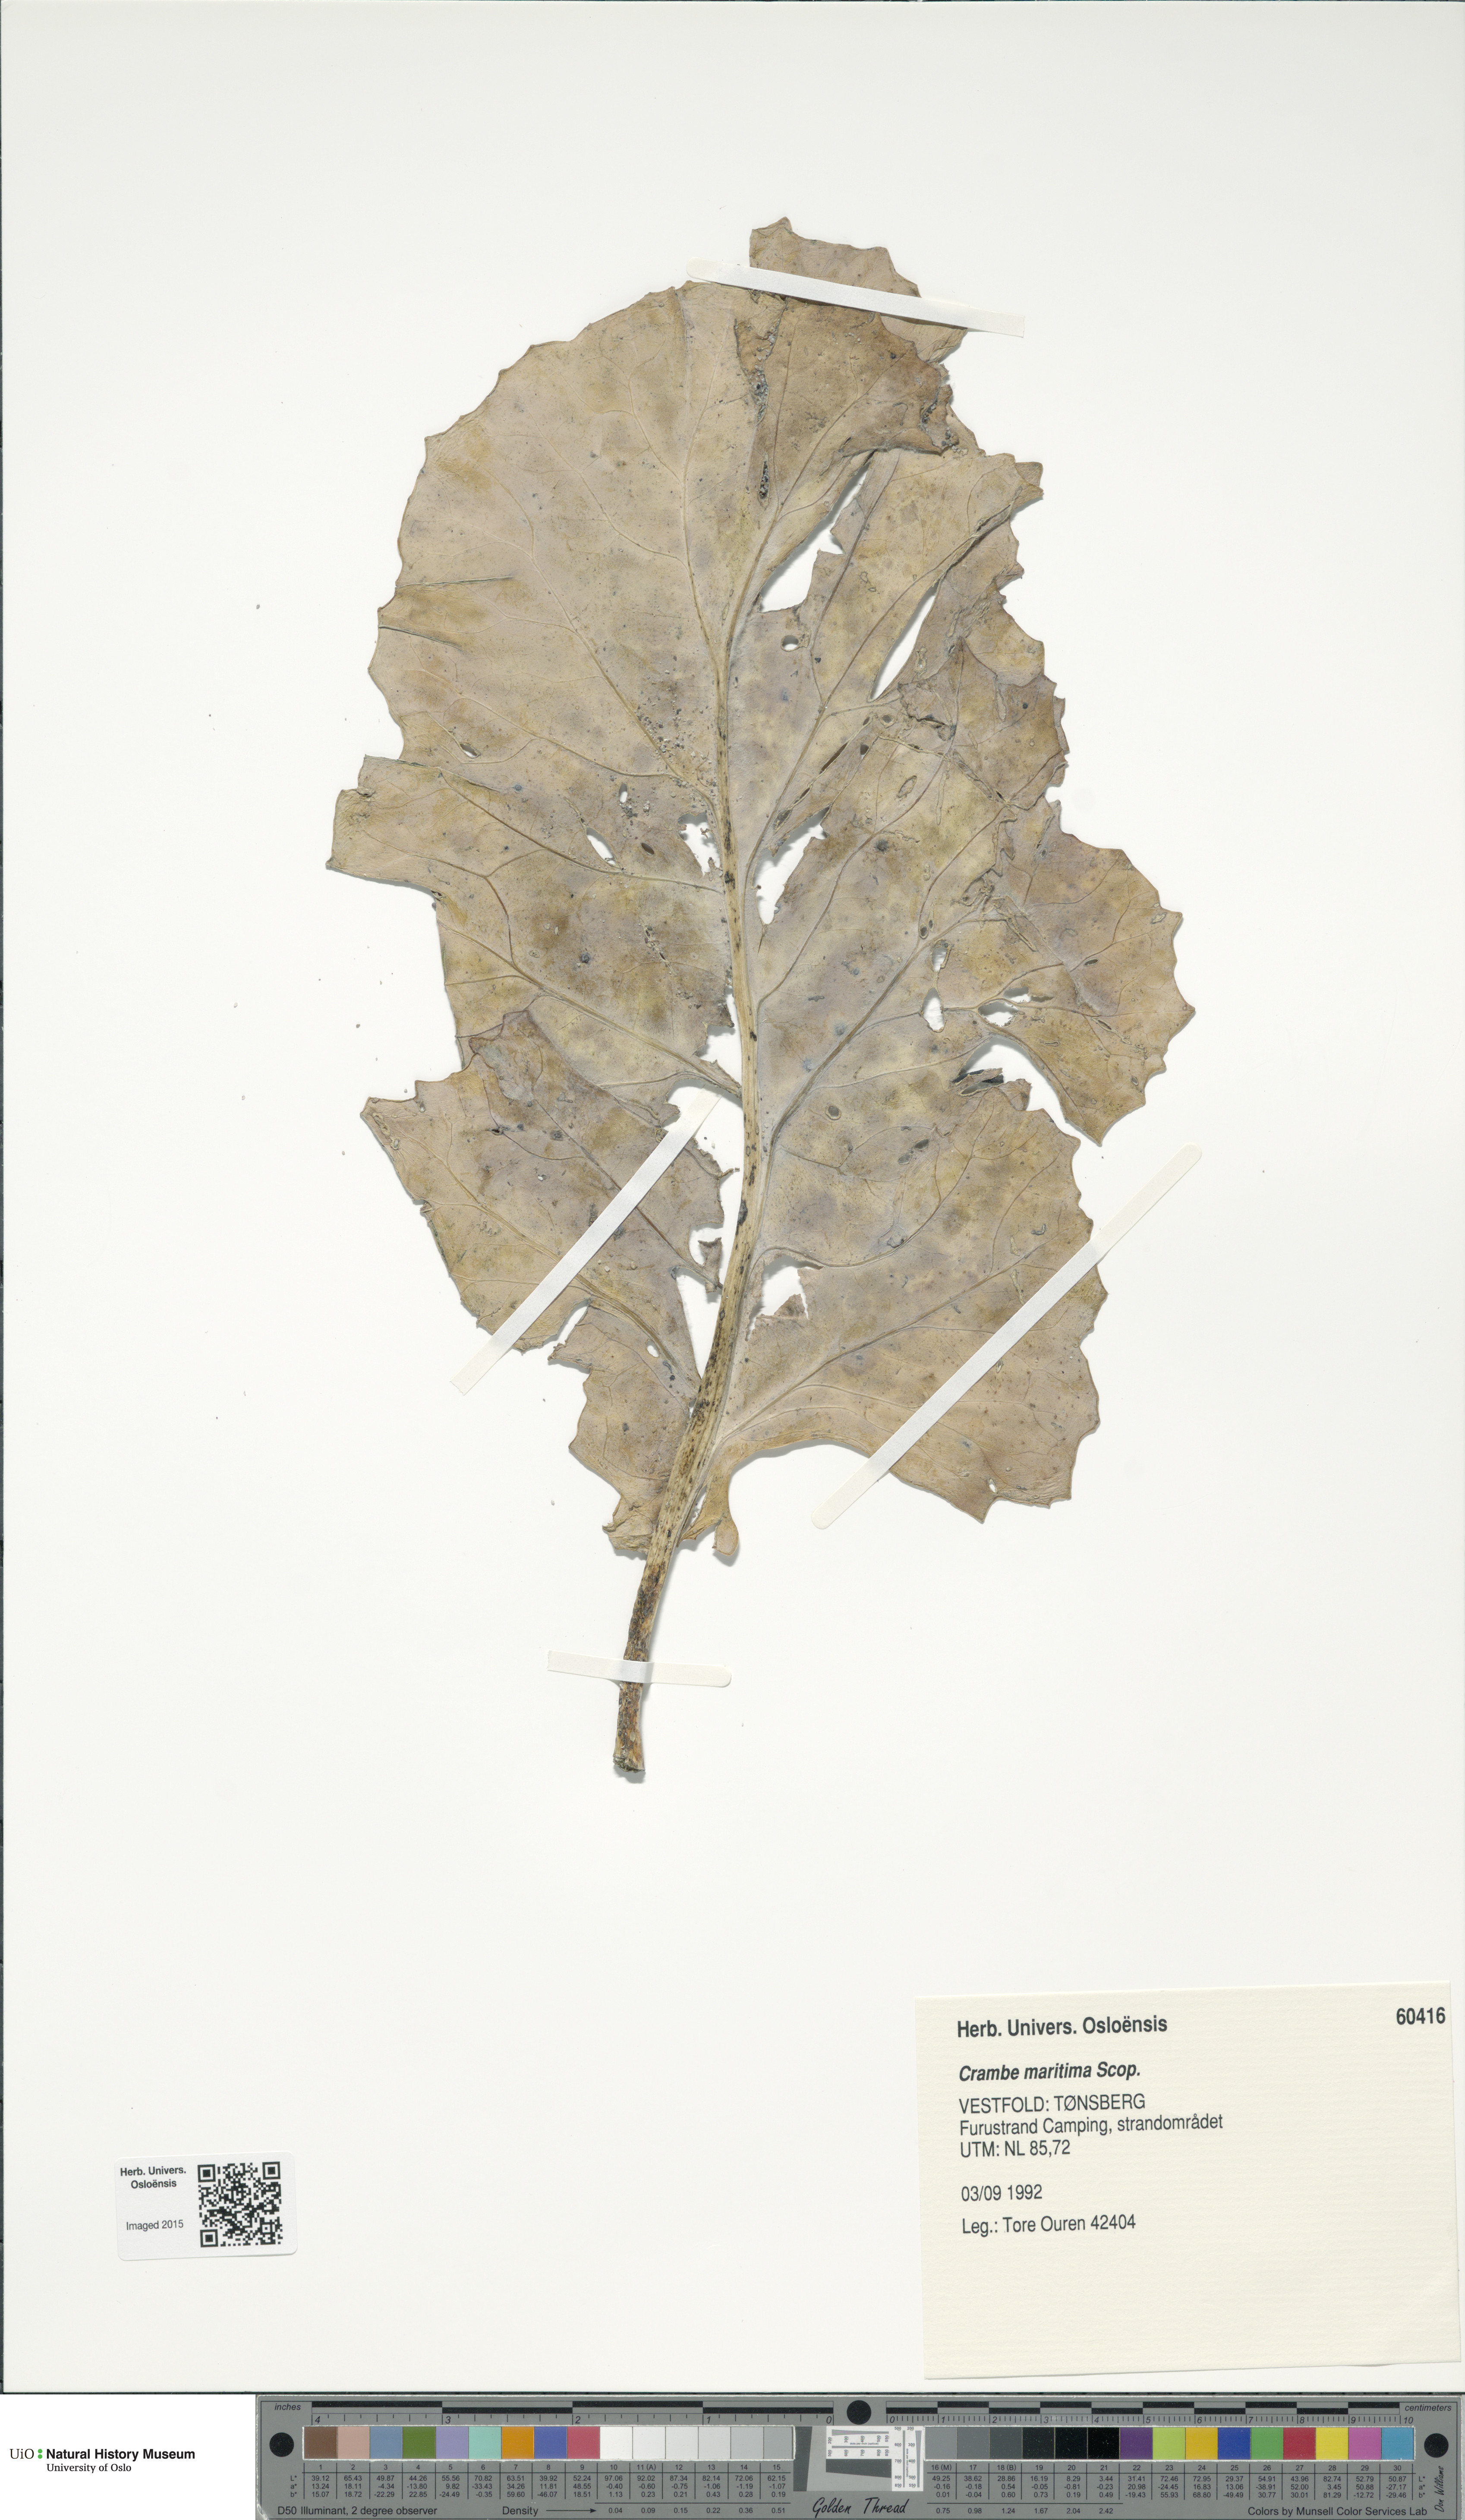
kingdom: Plantae
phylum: Tracheophyta
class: Magnoliopsida
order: Brassicales
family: Brassicaceae
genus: Crambe
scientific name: Crambe maritima
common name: Sea-kale
